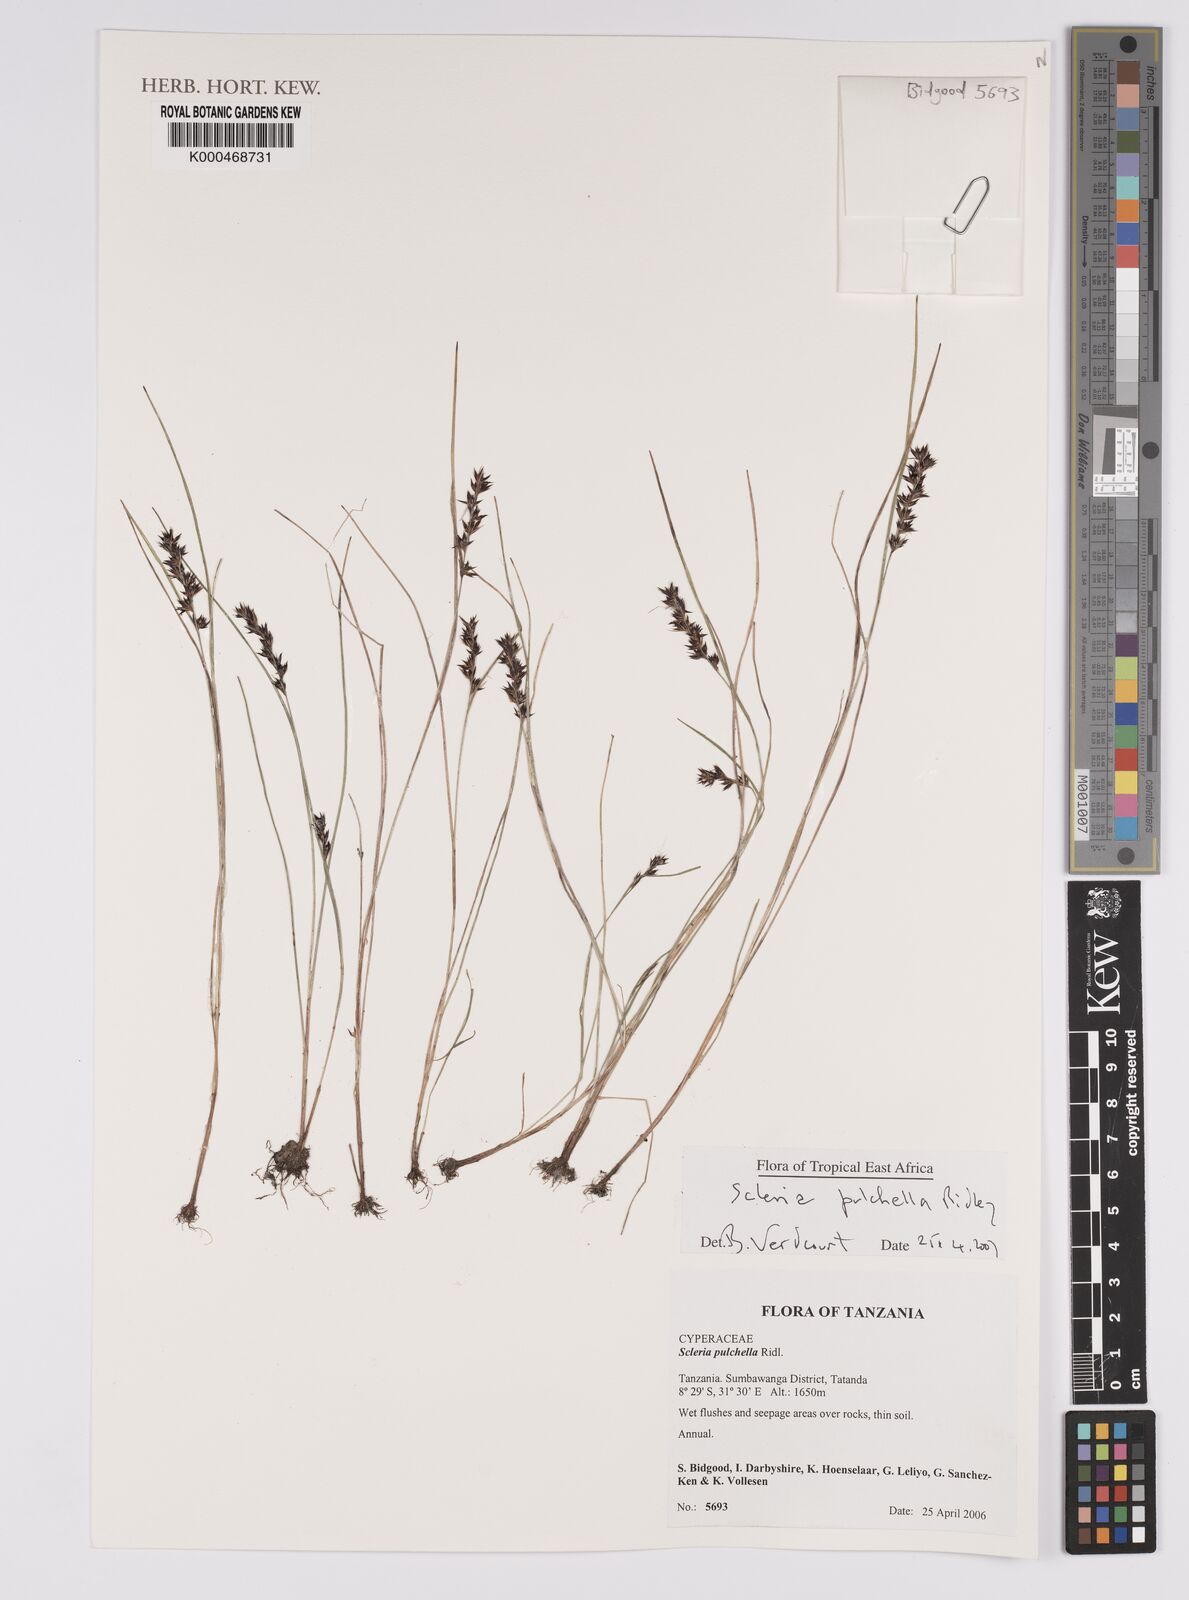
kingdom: Plantae
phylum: Tracheophyta
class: Liliopsida
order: Poales
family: Cyperaceae
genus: Scleria
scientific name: Scleria pulchella
